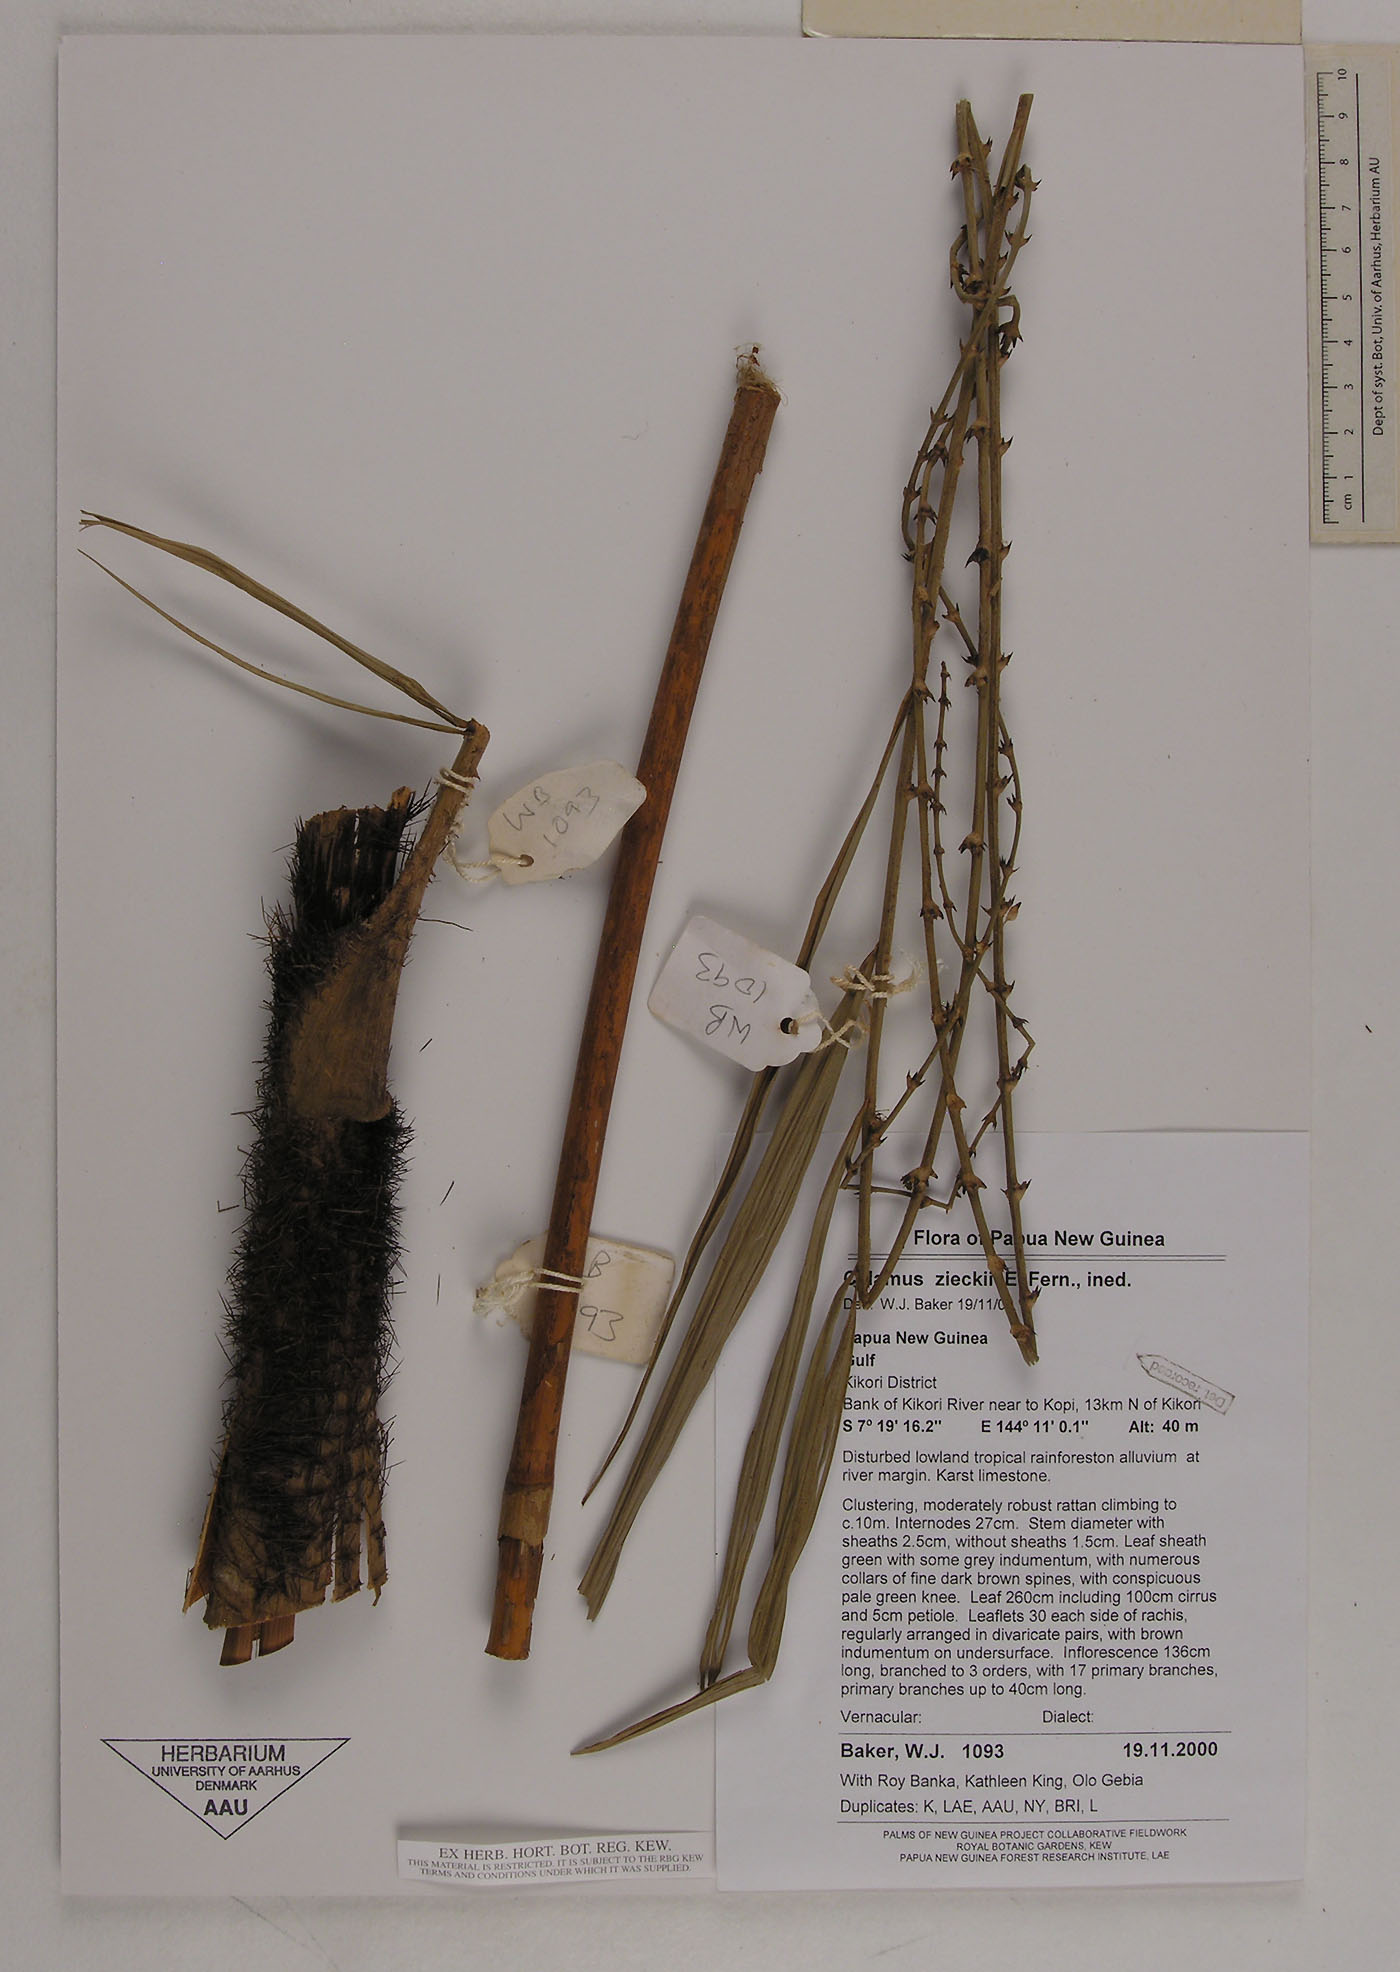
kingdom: Plantae
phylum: Tracheophyta
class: Liliopsida
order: Arecales
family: Arecaceae
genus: Calamus
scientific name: Calamus zieckii
